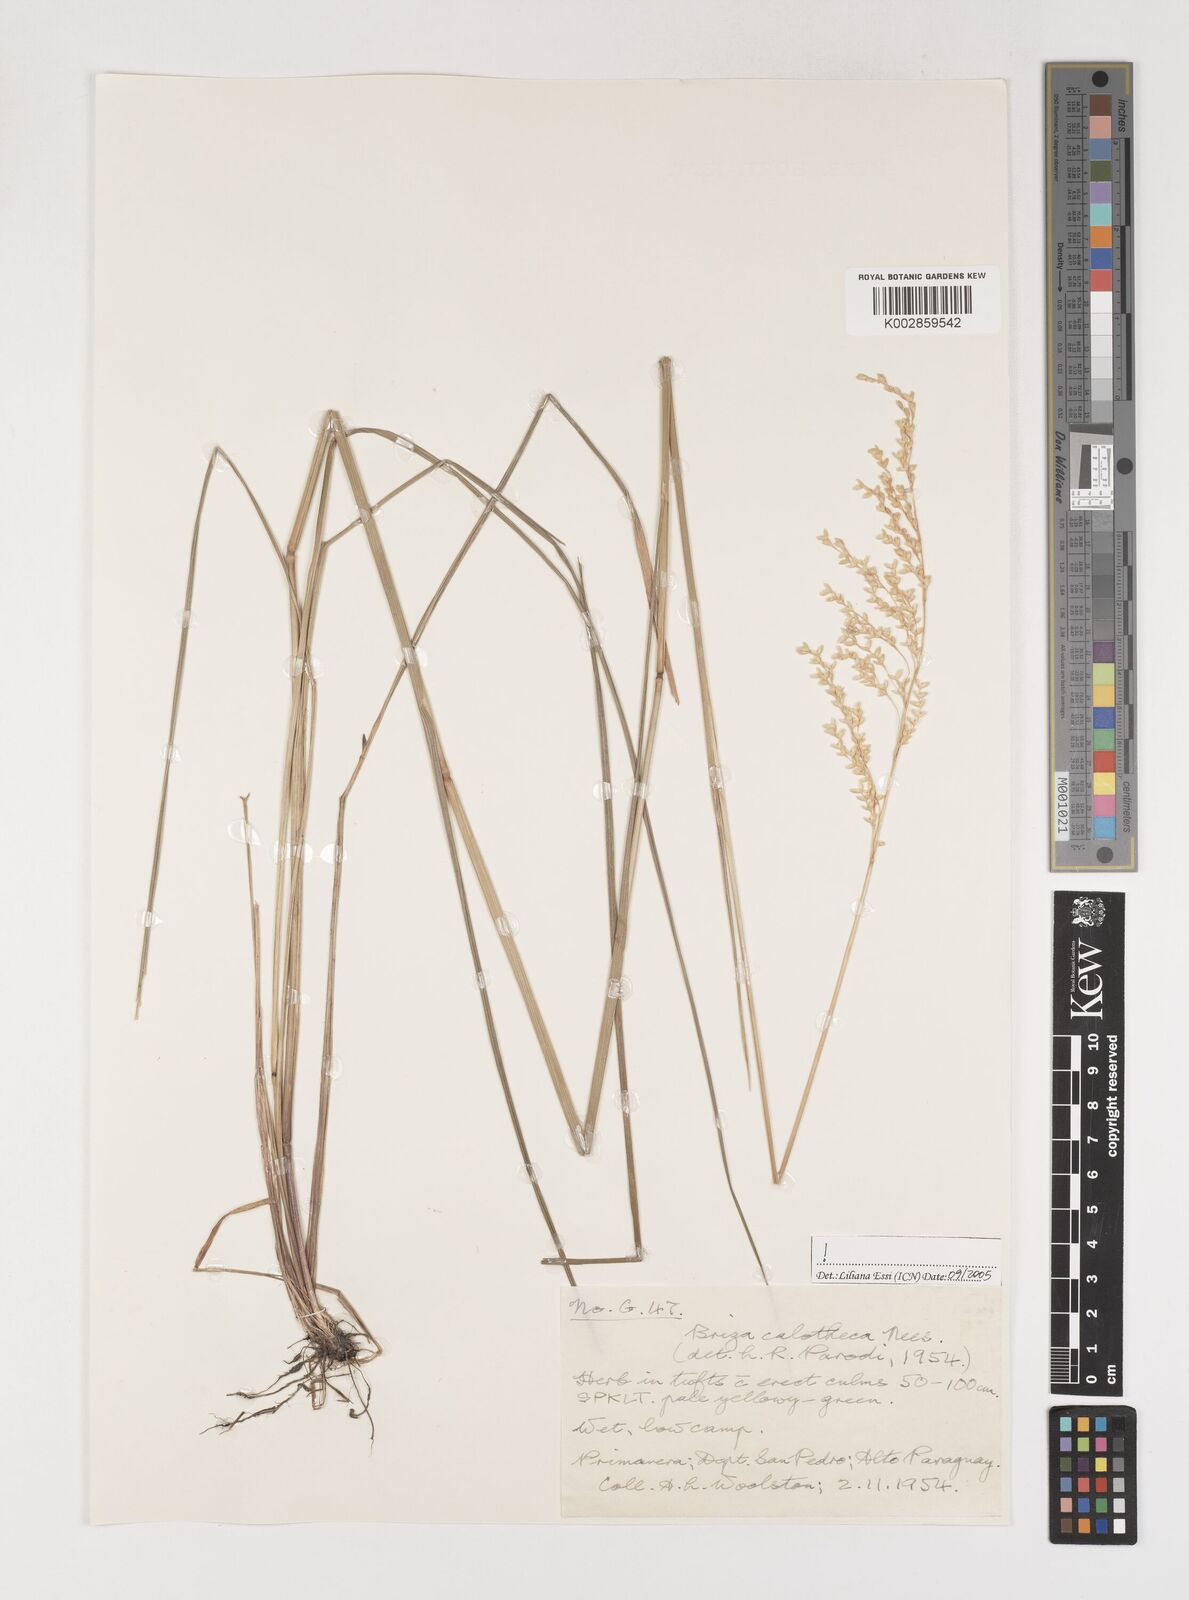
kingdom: Plantae
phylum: Tracheophyta
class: Liliopsida
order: Poales
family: Poaceae
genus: Poidium
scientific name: Poidium calotheca
